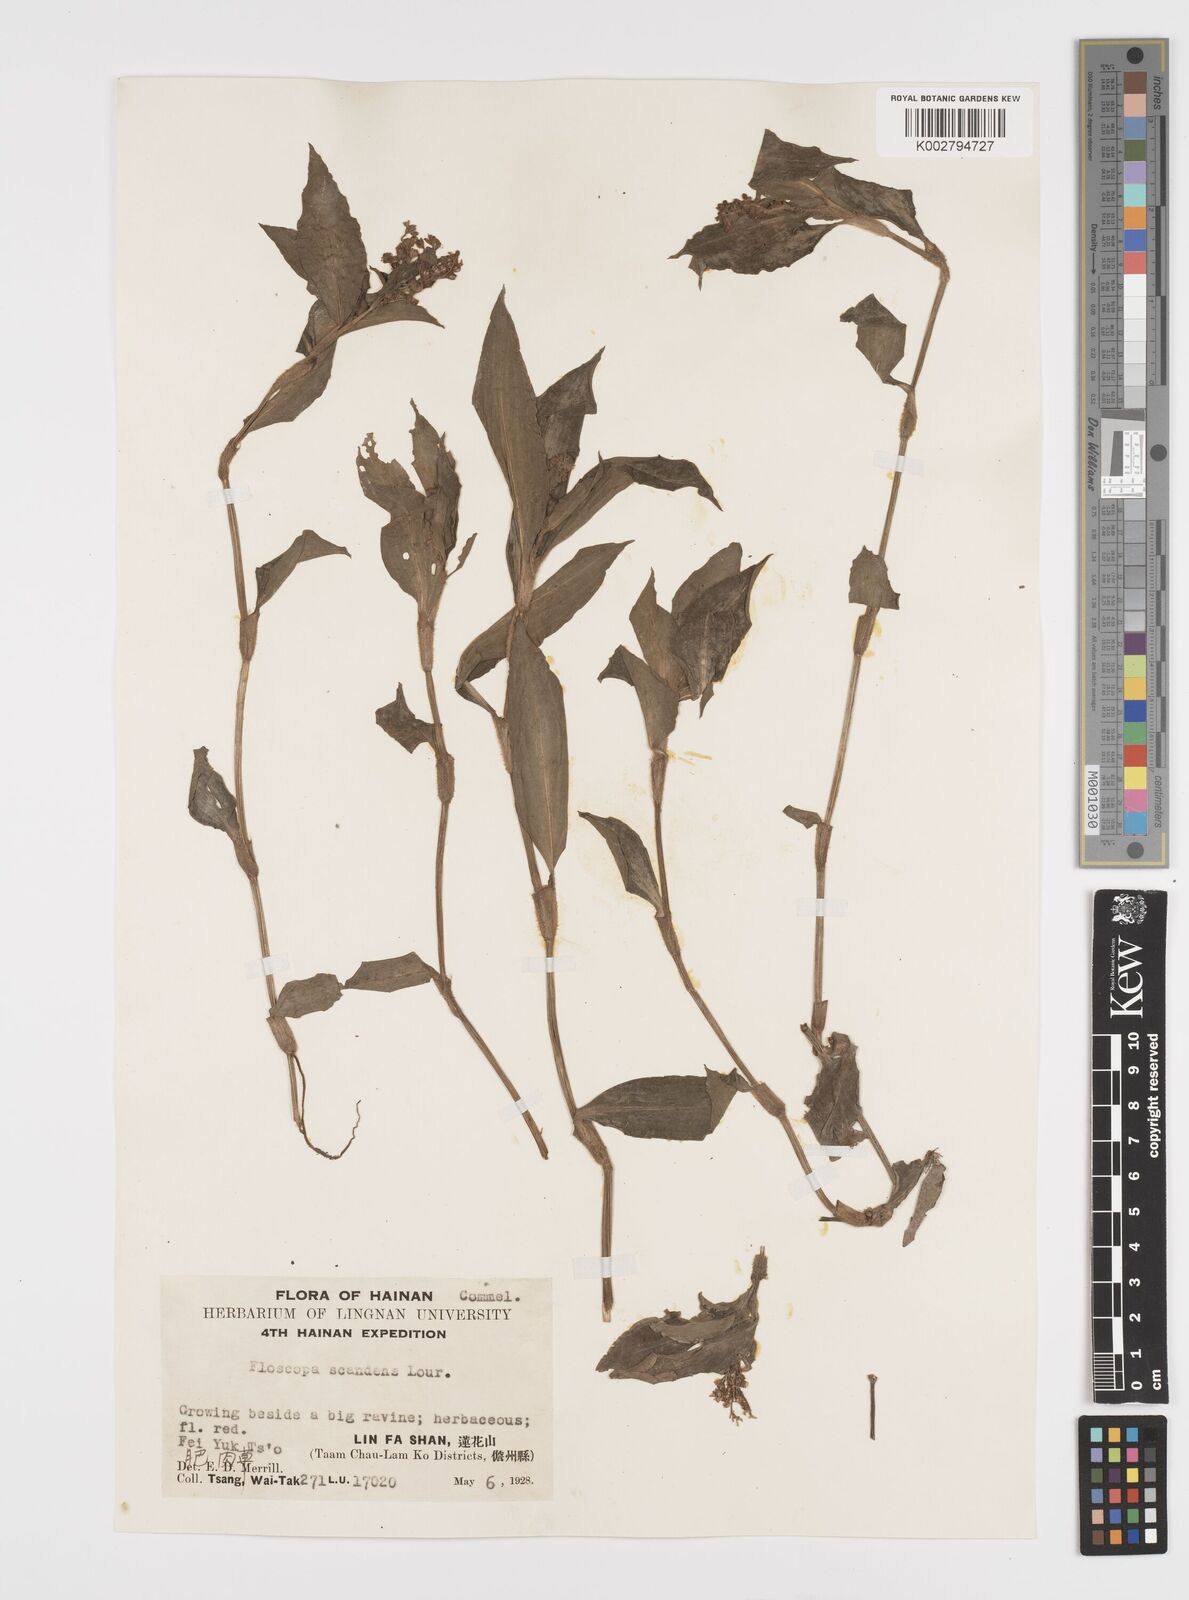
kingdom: Plantae
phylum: Tracheophyta
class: Liliopsida
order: Commelinales
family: Commelinaceae
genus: Floscopa
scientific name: Floscopa scandens
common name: Climbing flower cup
